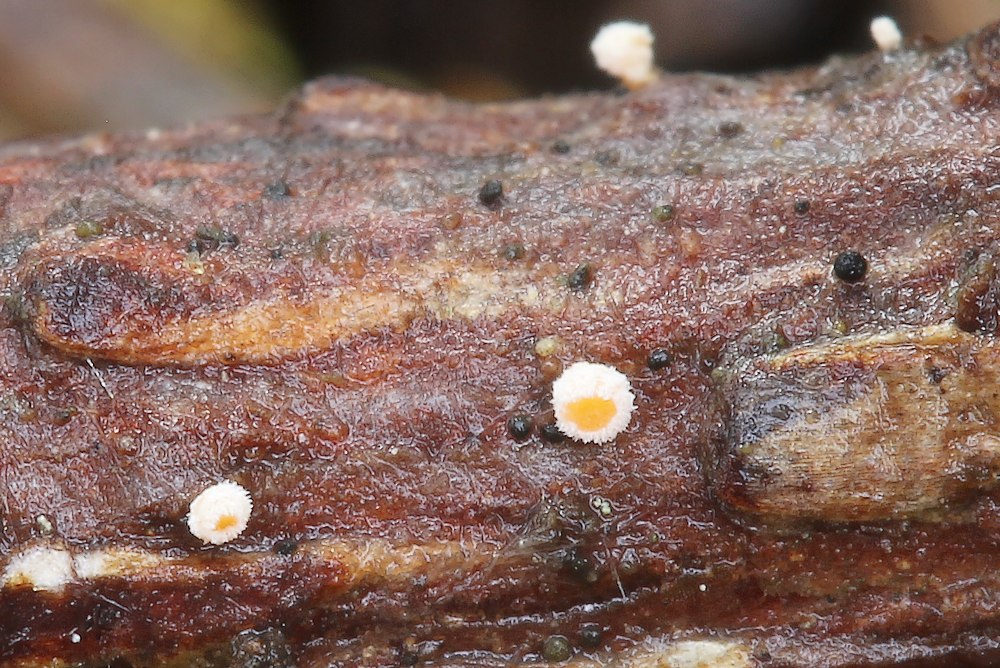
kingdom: Fungi
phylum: Ascomycota
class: Leotiomycetes
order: Helotiales
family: Mollisiaceae
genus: Trimmatostroma
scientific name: Trimmatostroma scutellare
